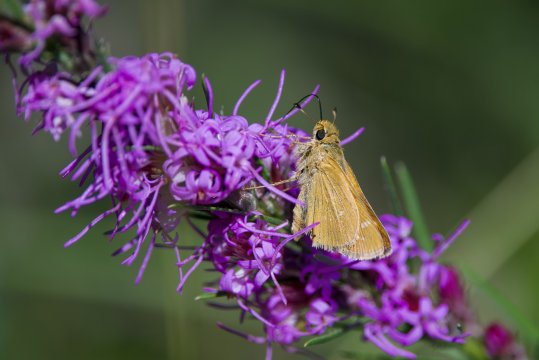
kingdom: Animalia
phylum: Arthropoda
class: Insecta
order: Lepidoptera
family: Hesperiidae
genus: Hesperia
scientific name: Hesperia comma
